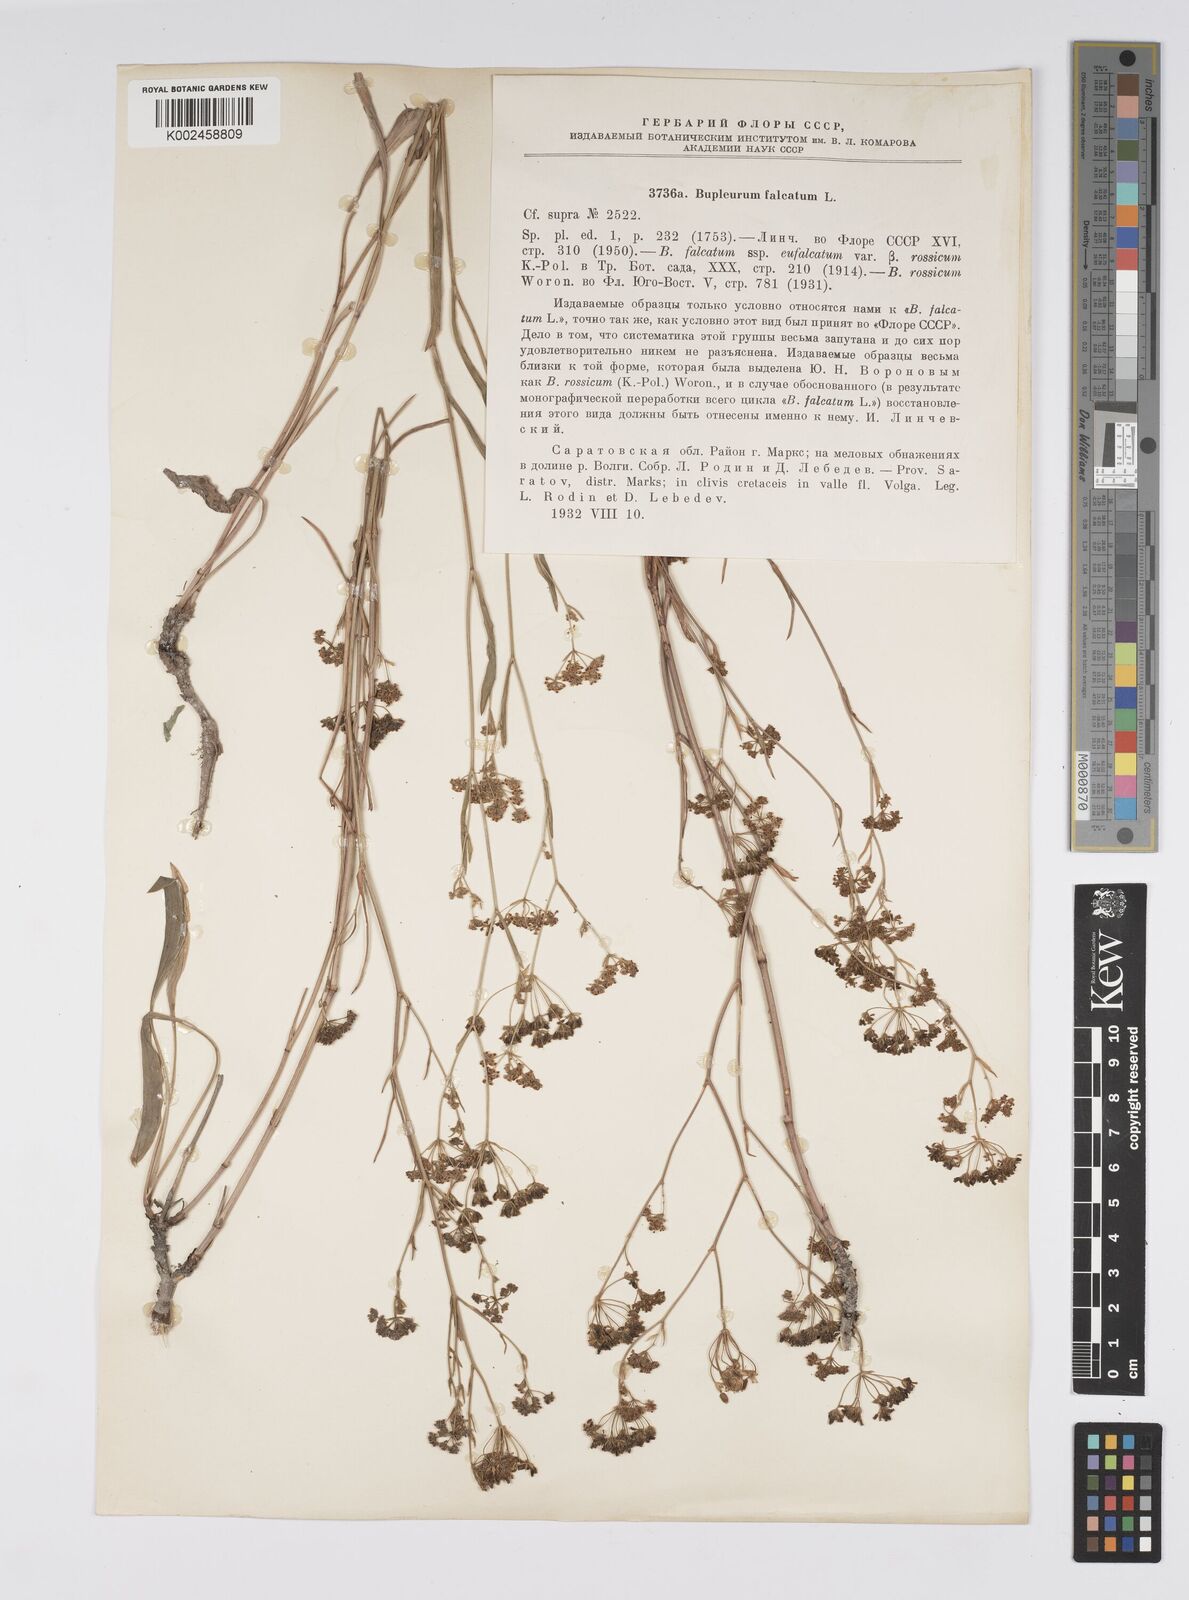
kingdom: Plantae
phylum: Tracheophyta
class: Magnoliopsida
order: Apiales
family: Apiaceae
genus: Bupleurum
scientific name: Bupleurum falcatum
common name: Sickle-leaved hare's-ear
